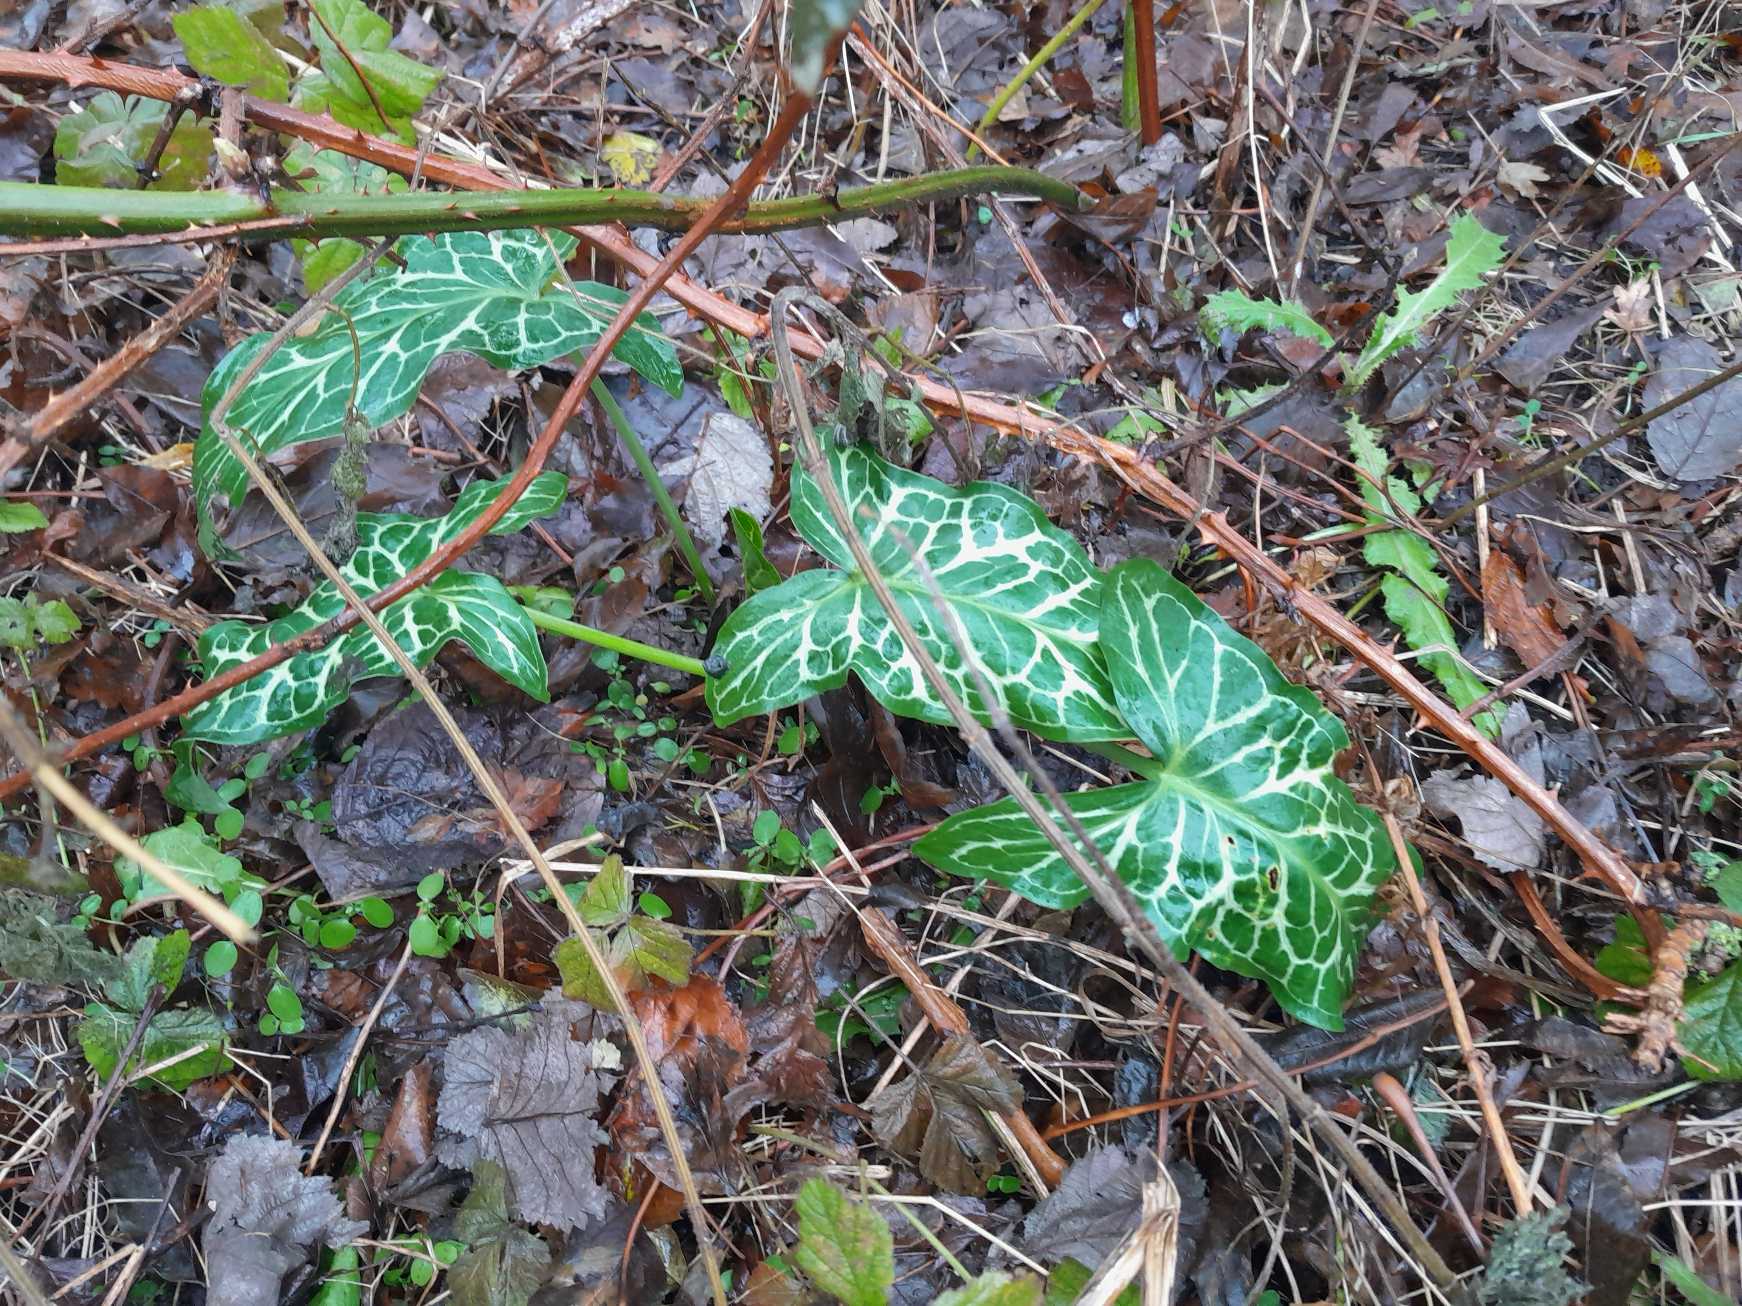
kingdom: Plantae
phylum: Tracheophyta
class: Liliopsida
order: Alismatales
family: Araceae
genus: Arum
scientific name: Arum italicum
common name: Italiensk arum
